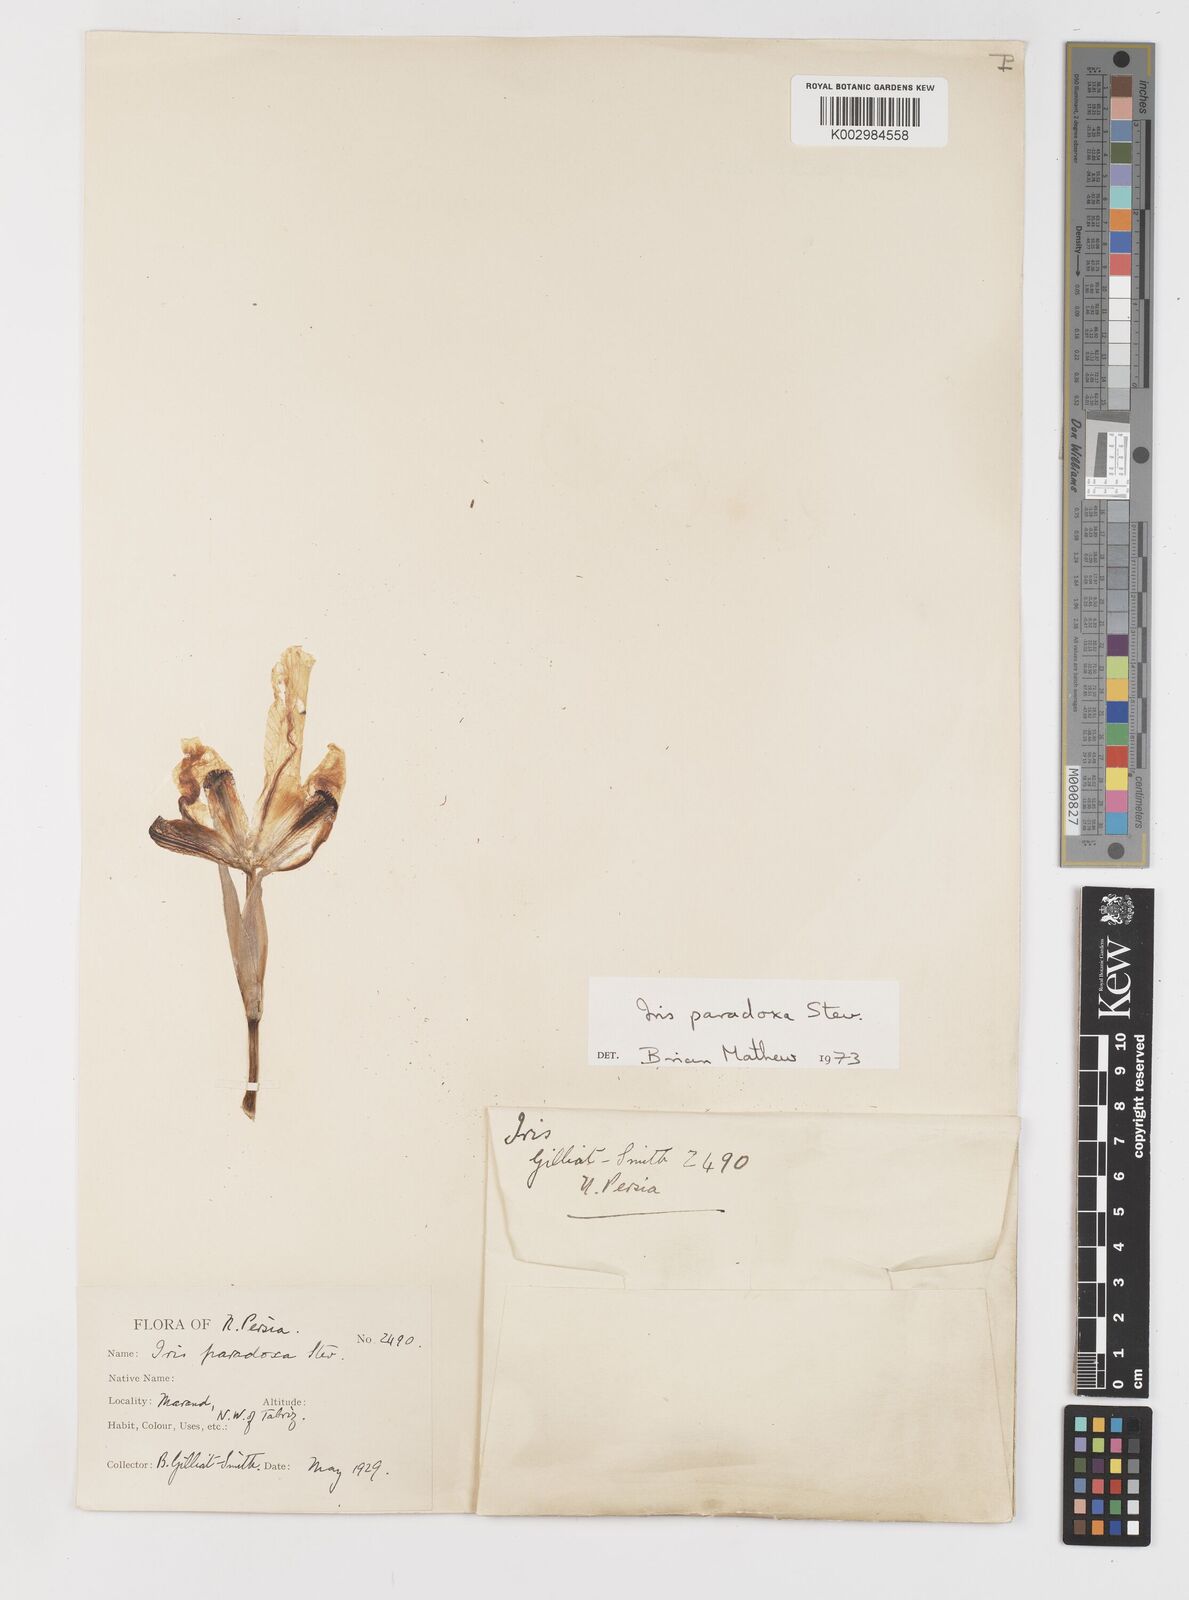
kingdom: Plantae
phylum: Tracheophyta
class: Liliopsida
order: Asparagales
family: Iridaceae
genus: Iris
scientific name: Iris paradoxa
